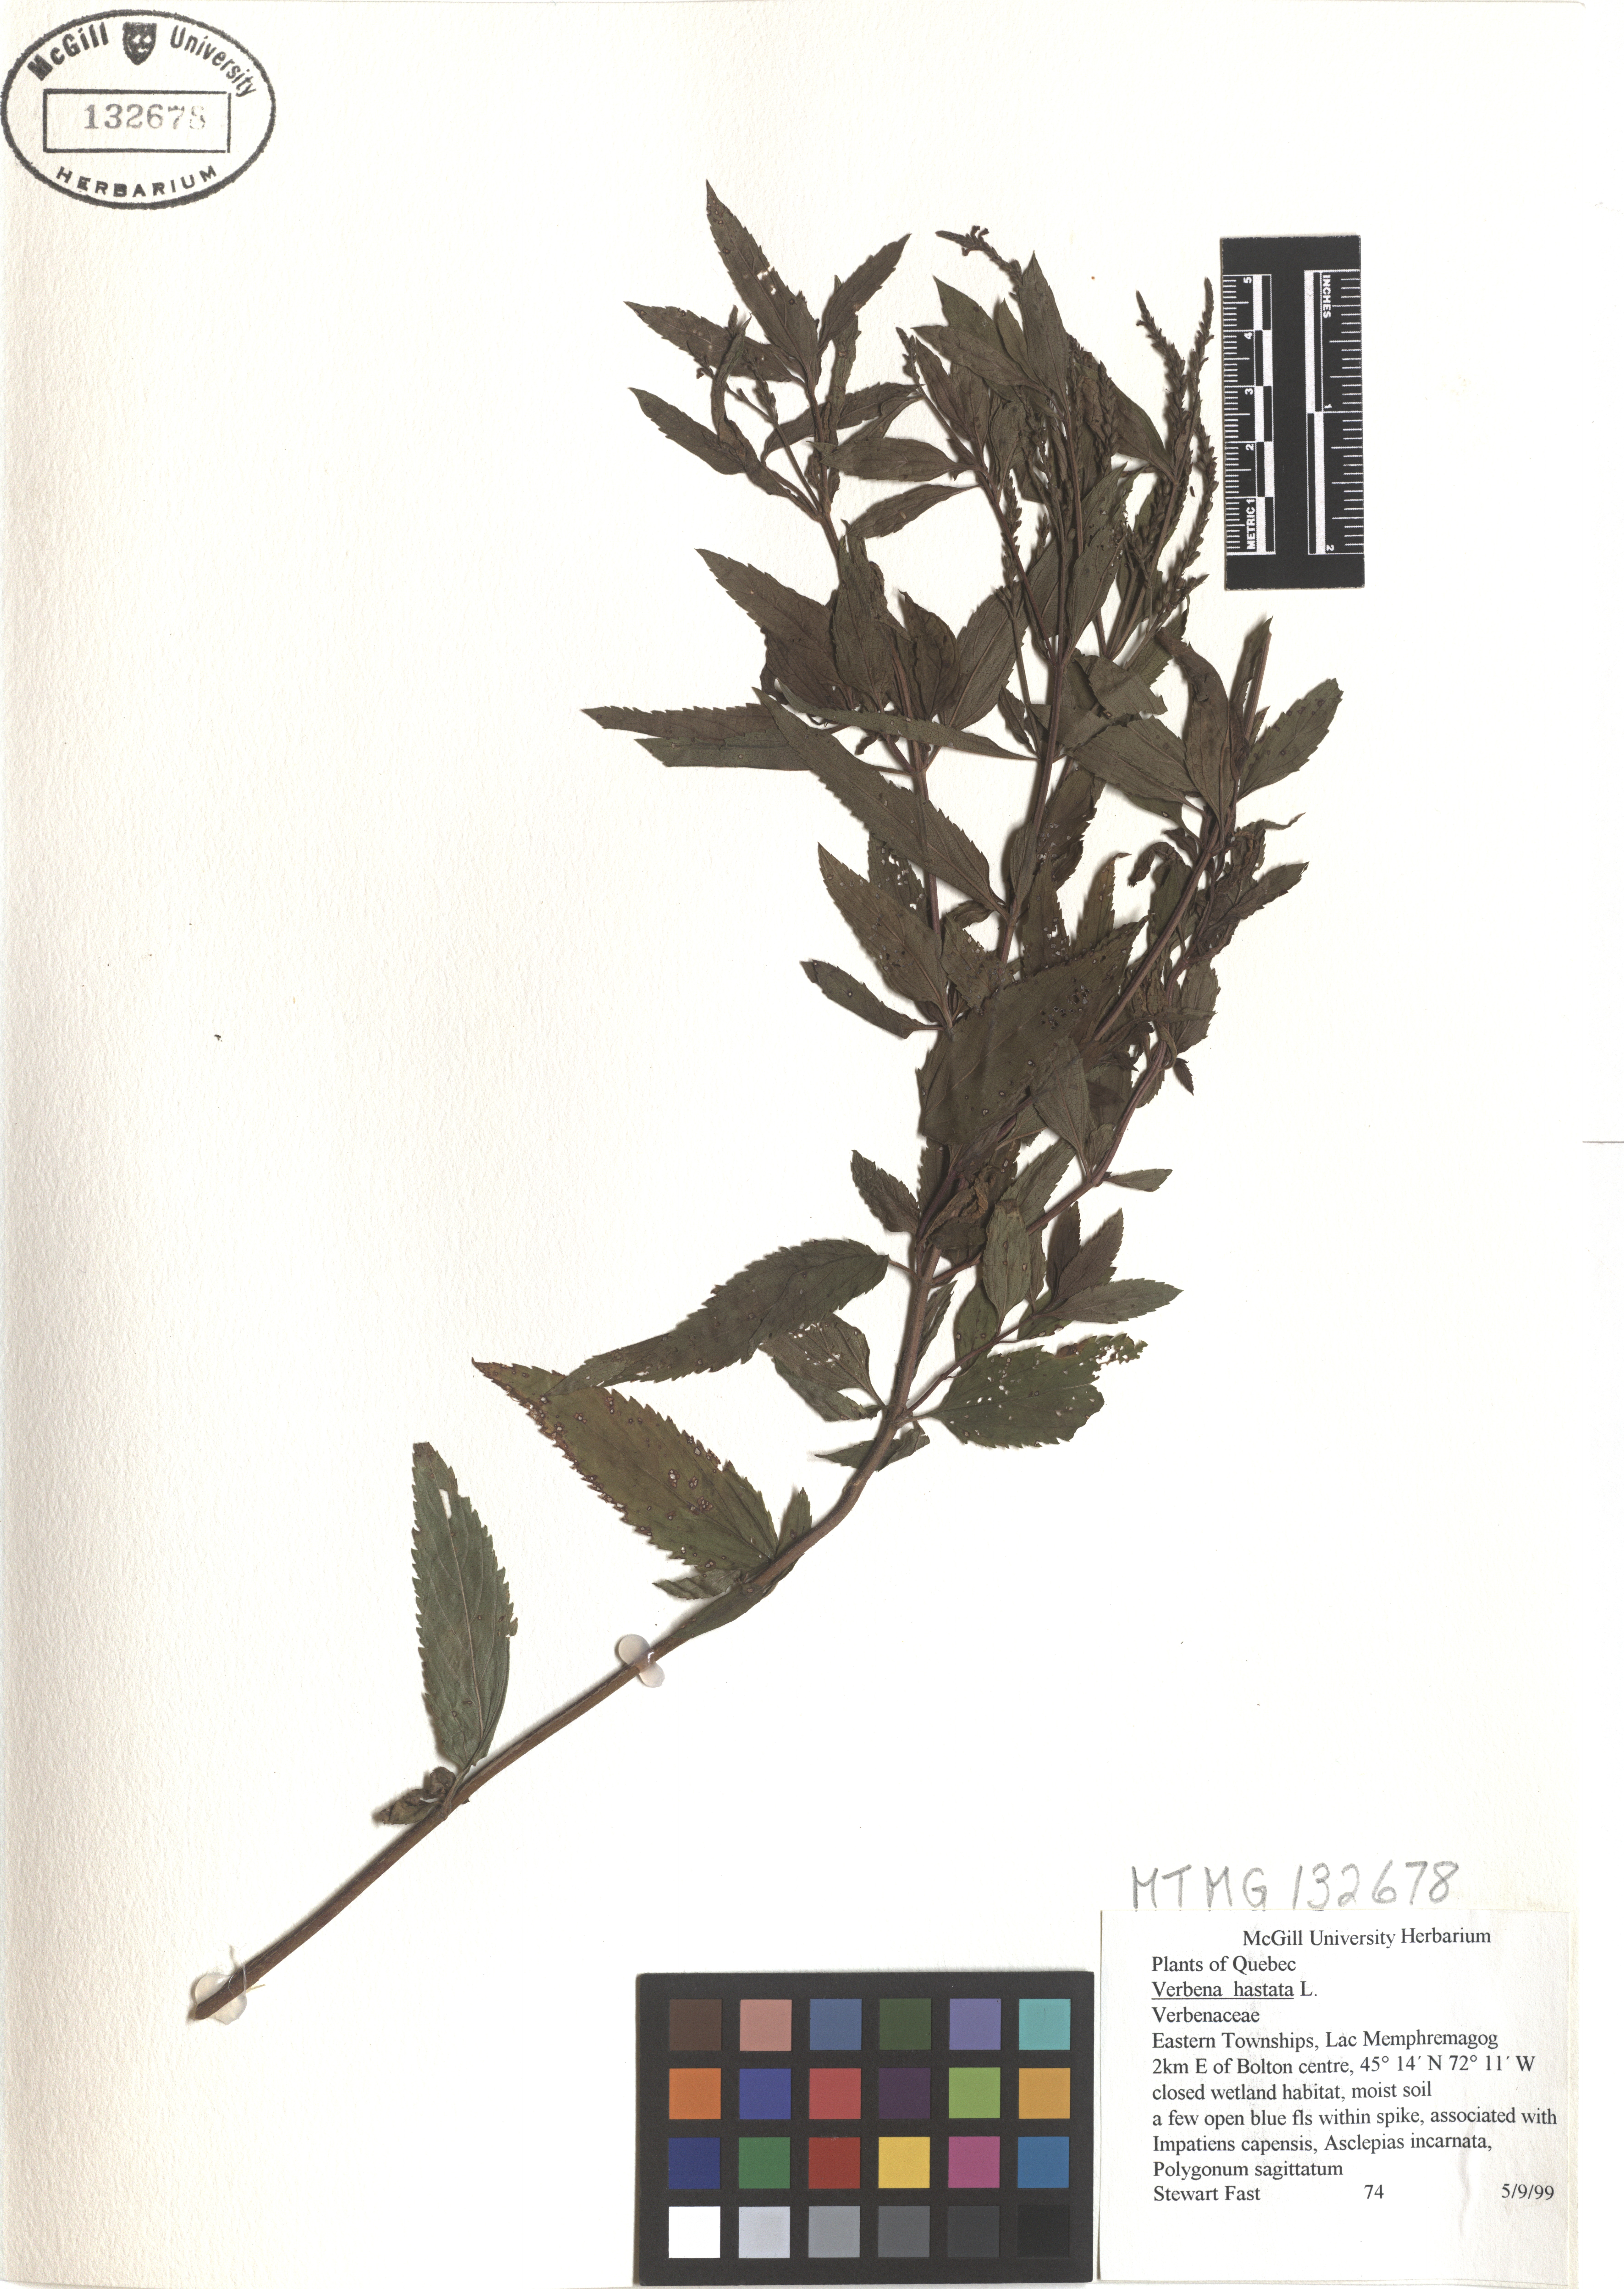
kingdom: Plantae
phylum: Tracheophyta
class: Magnoliopsida
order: Lamiales
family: Verbenaceae
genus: Verbena
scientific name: Verbena hastata
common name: American blue vervain
